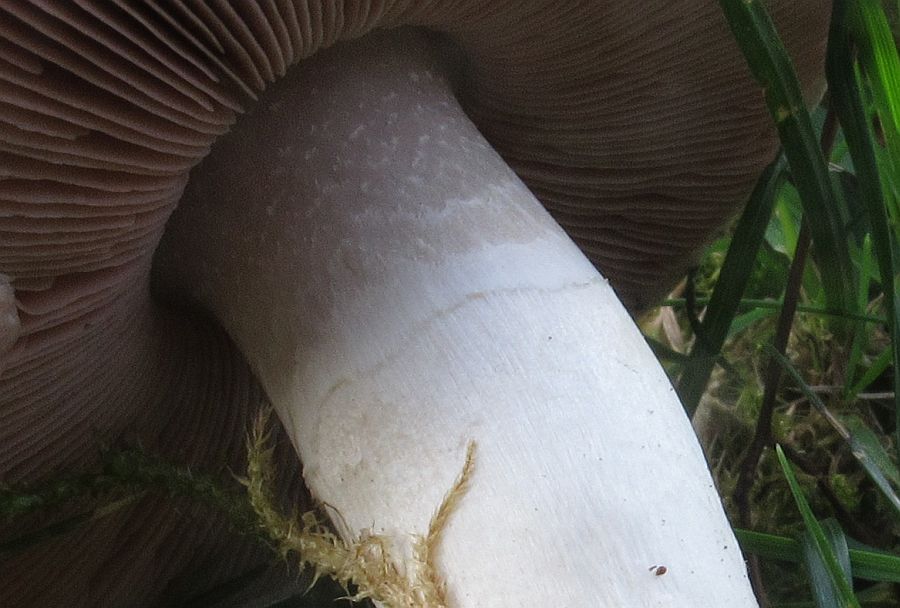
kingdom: Fungi
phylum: Basidiomycota
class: Agaricomycetes
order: Agaricales
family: Agaricaceae
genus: Agaricus
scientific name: Agaricus campestris
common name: mark-champignon
